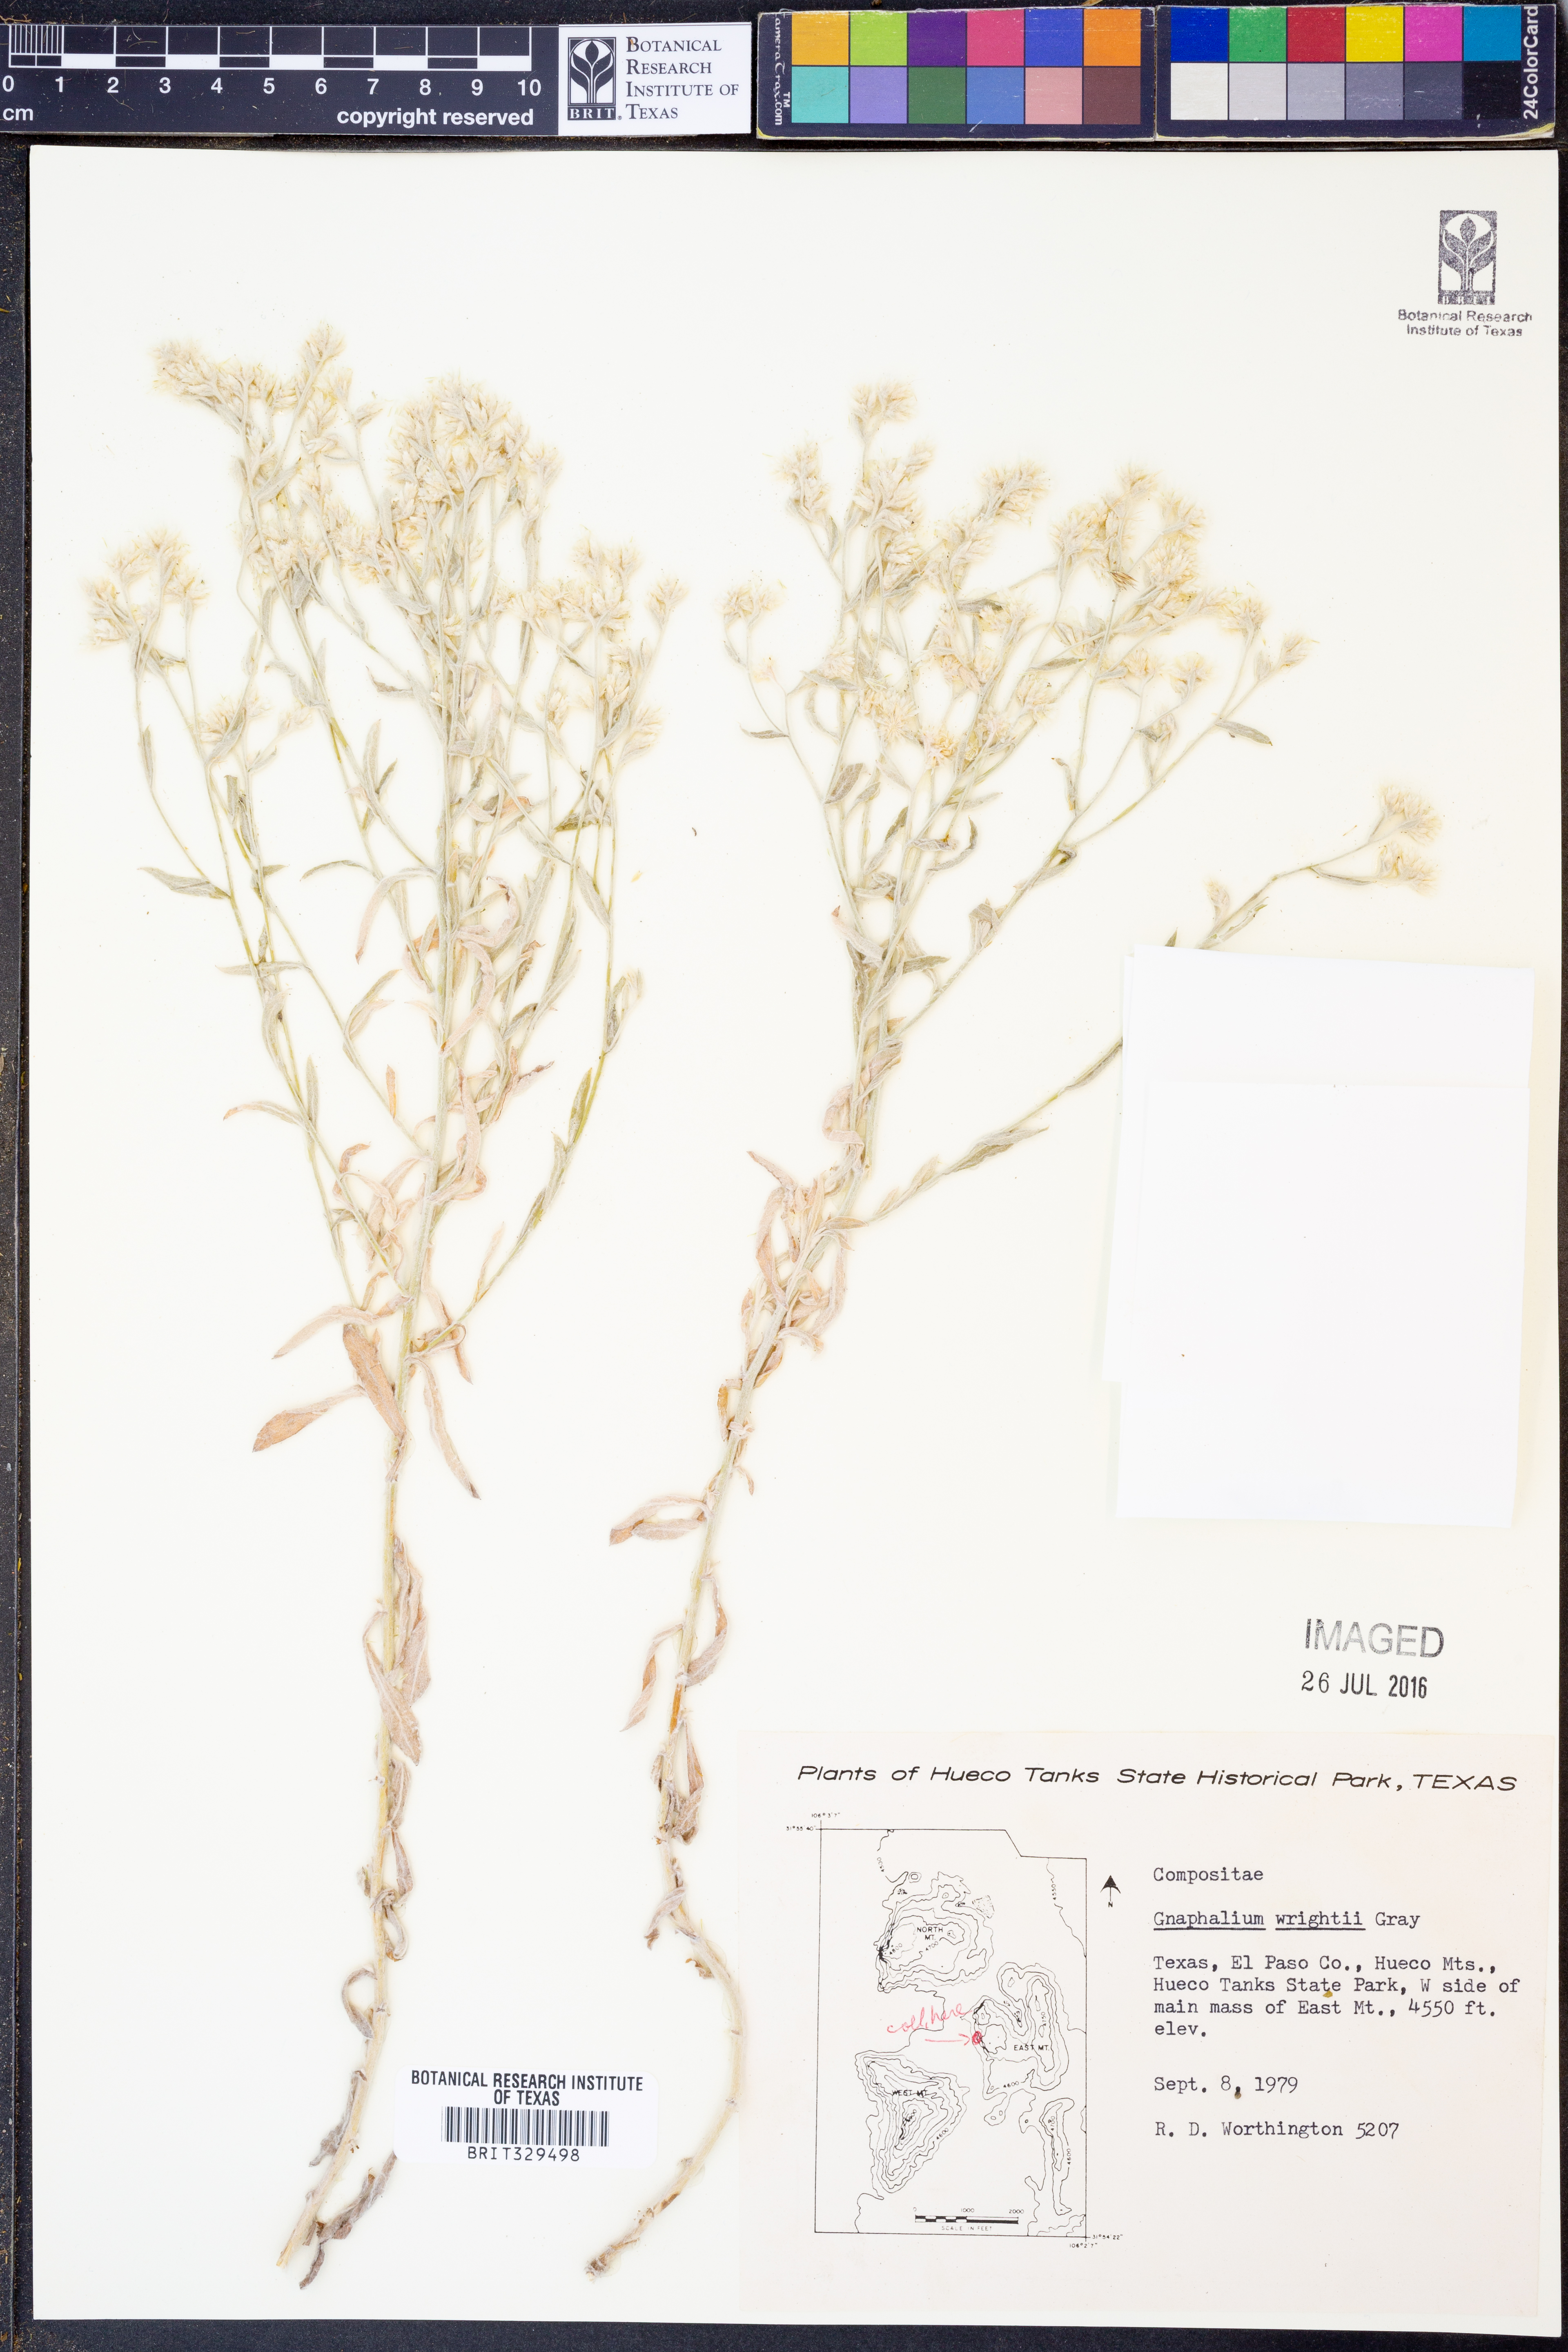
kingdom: Plantae
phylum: Tracheophyta
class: Magnoliopsida
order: Asterales
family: Asteraceae
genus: Pseudognaphalium
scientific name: Pseudognaphalium canescens
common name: Wright's rabbit-tobacco
